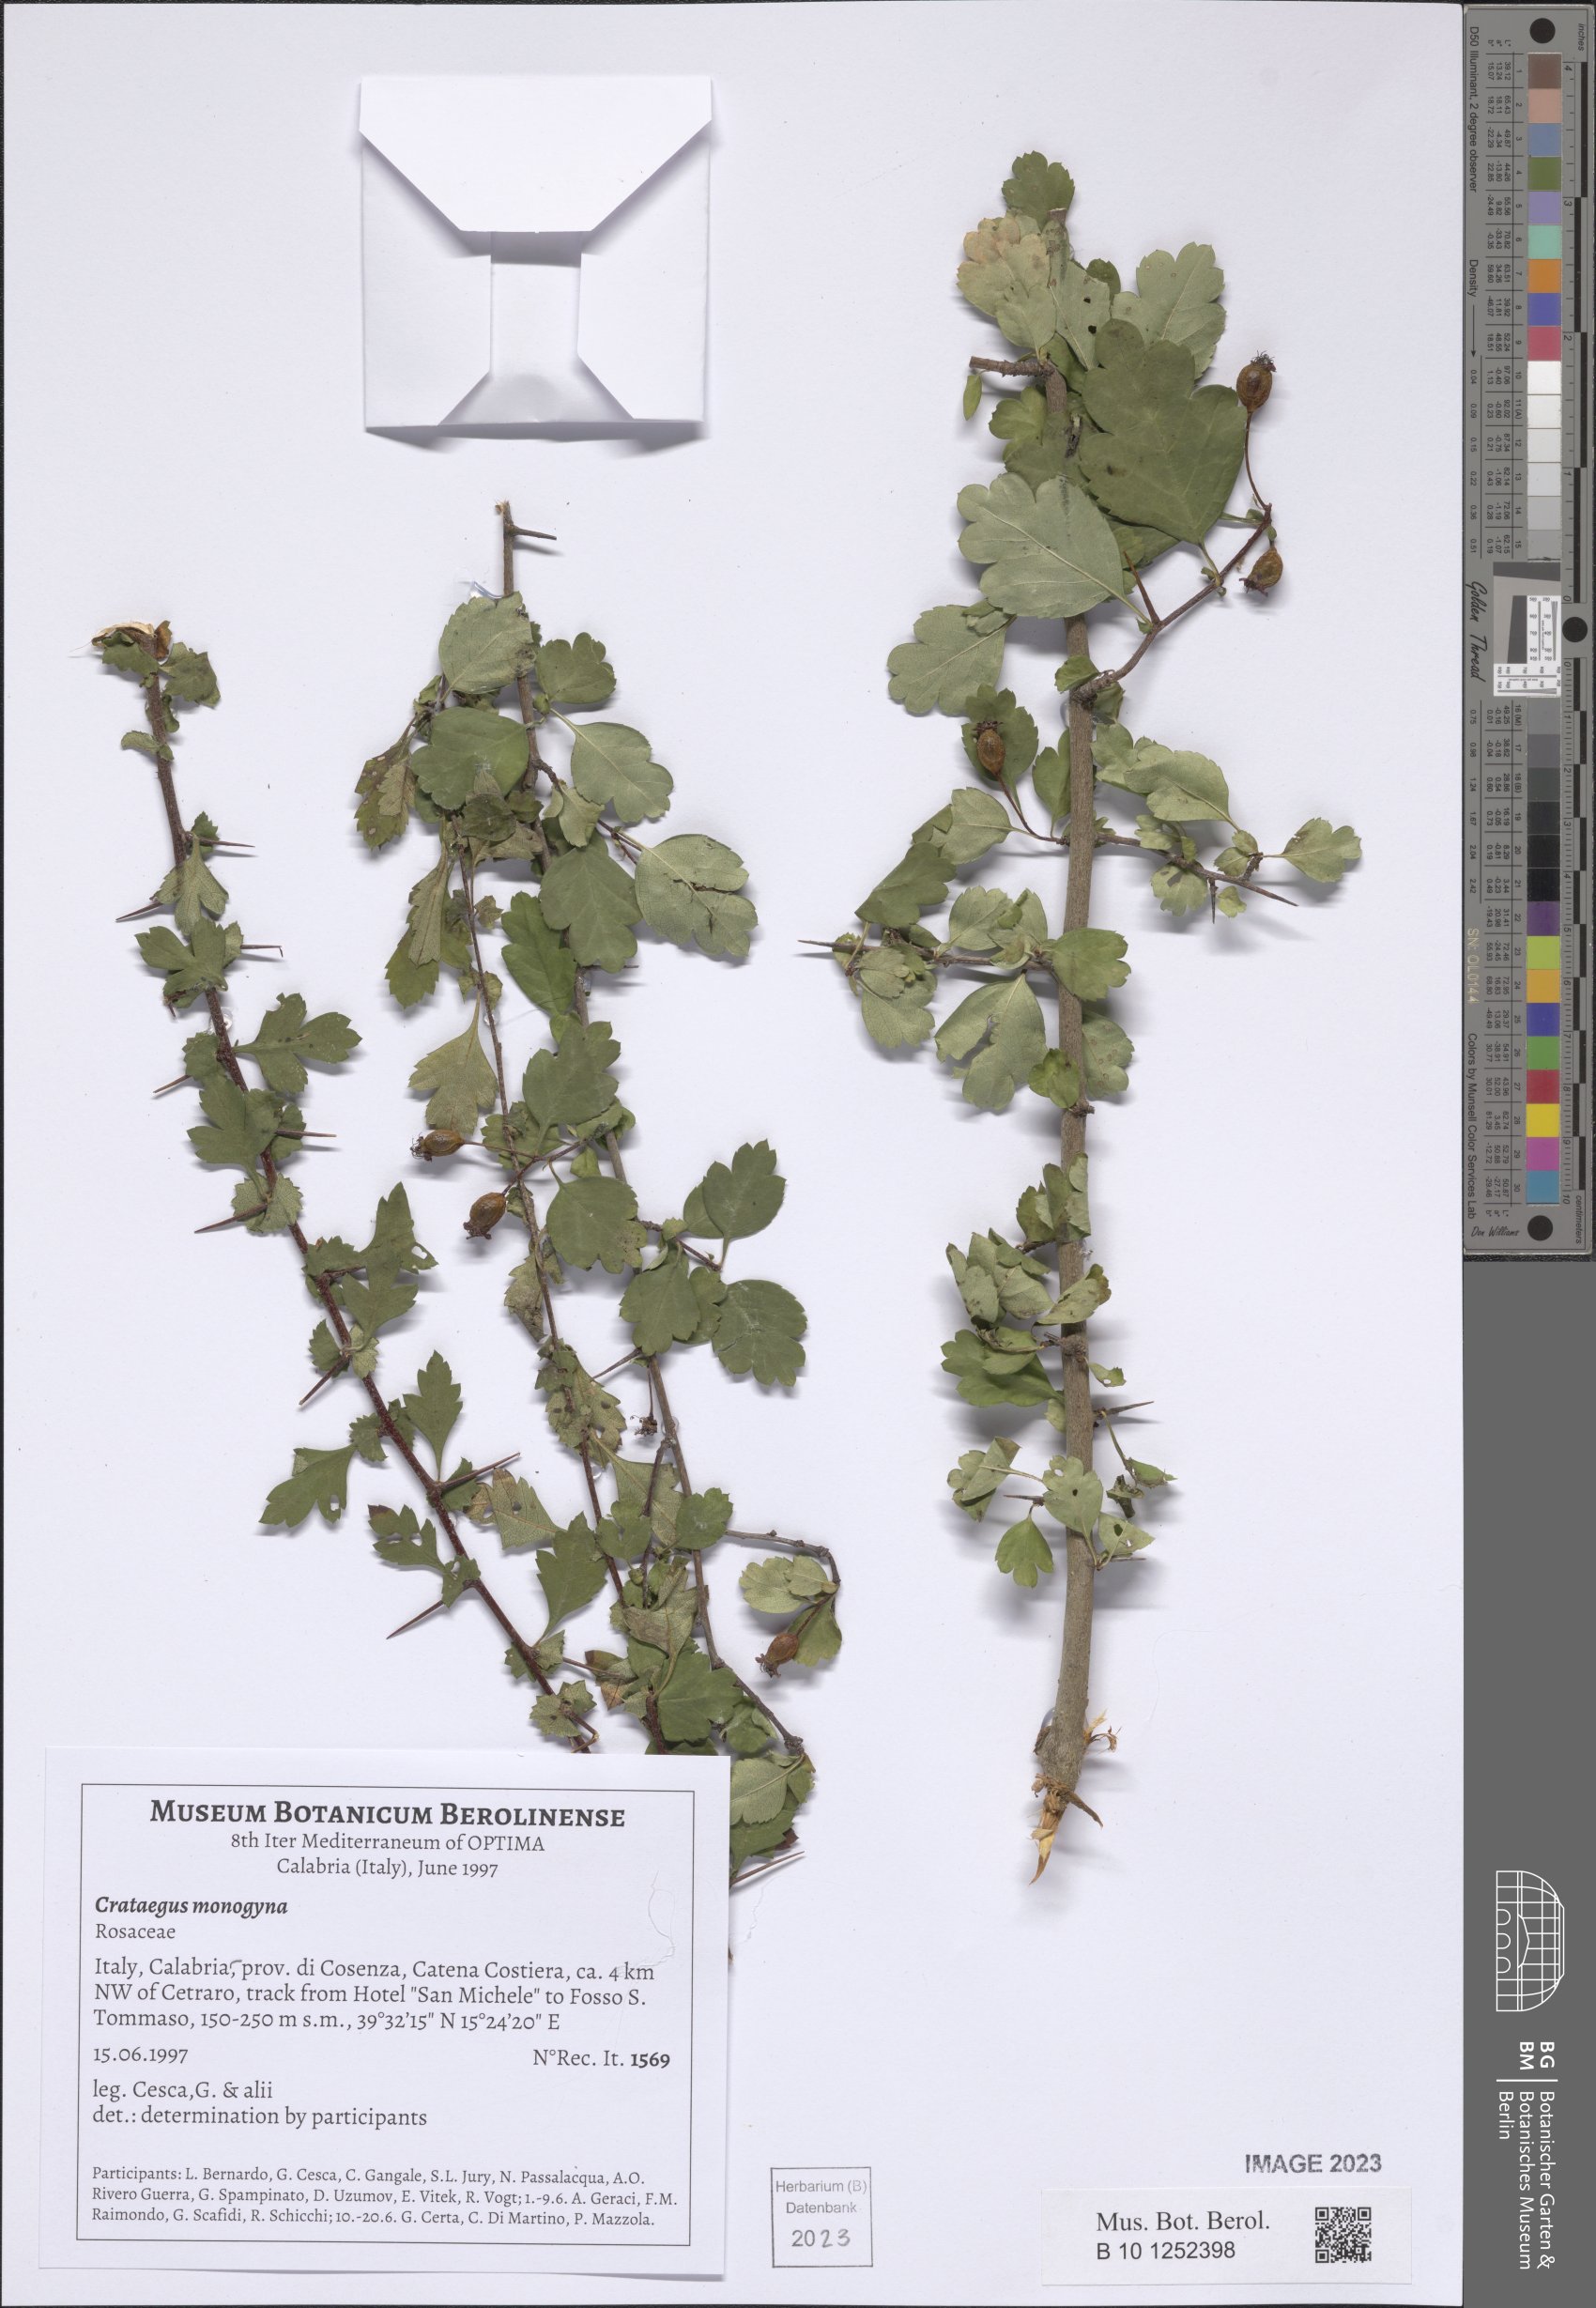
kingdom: Plantae
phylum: Tracheophyta
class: Magnoliopsida
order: Rosales
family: Rosaceae
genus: Crataegus
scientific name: Crataegus monogyna
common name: Hawthorn
